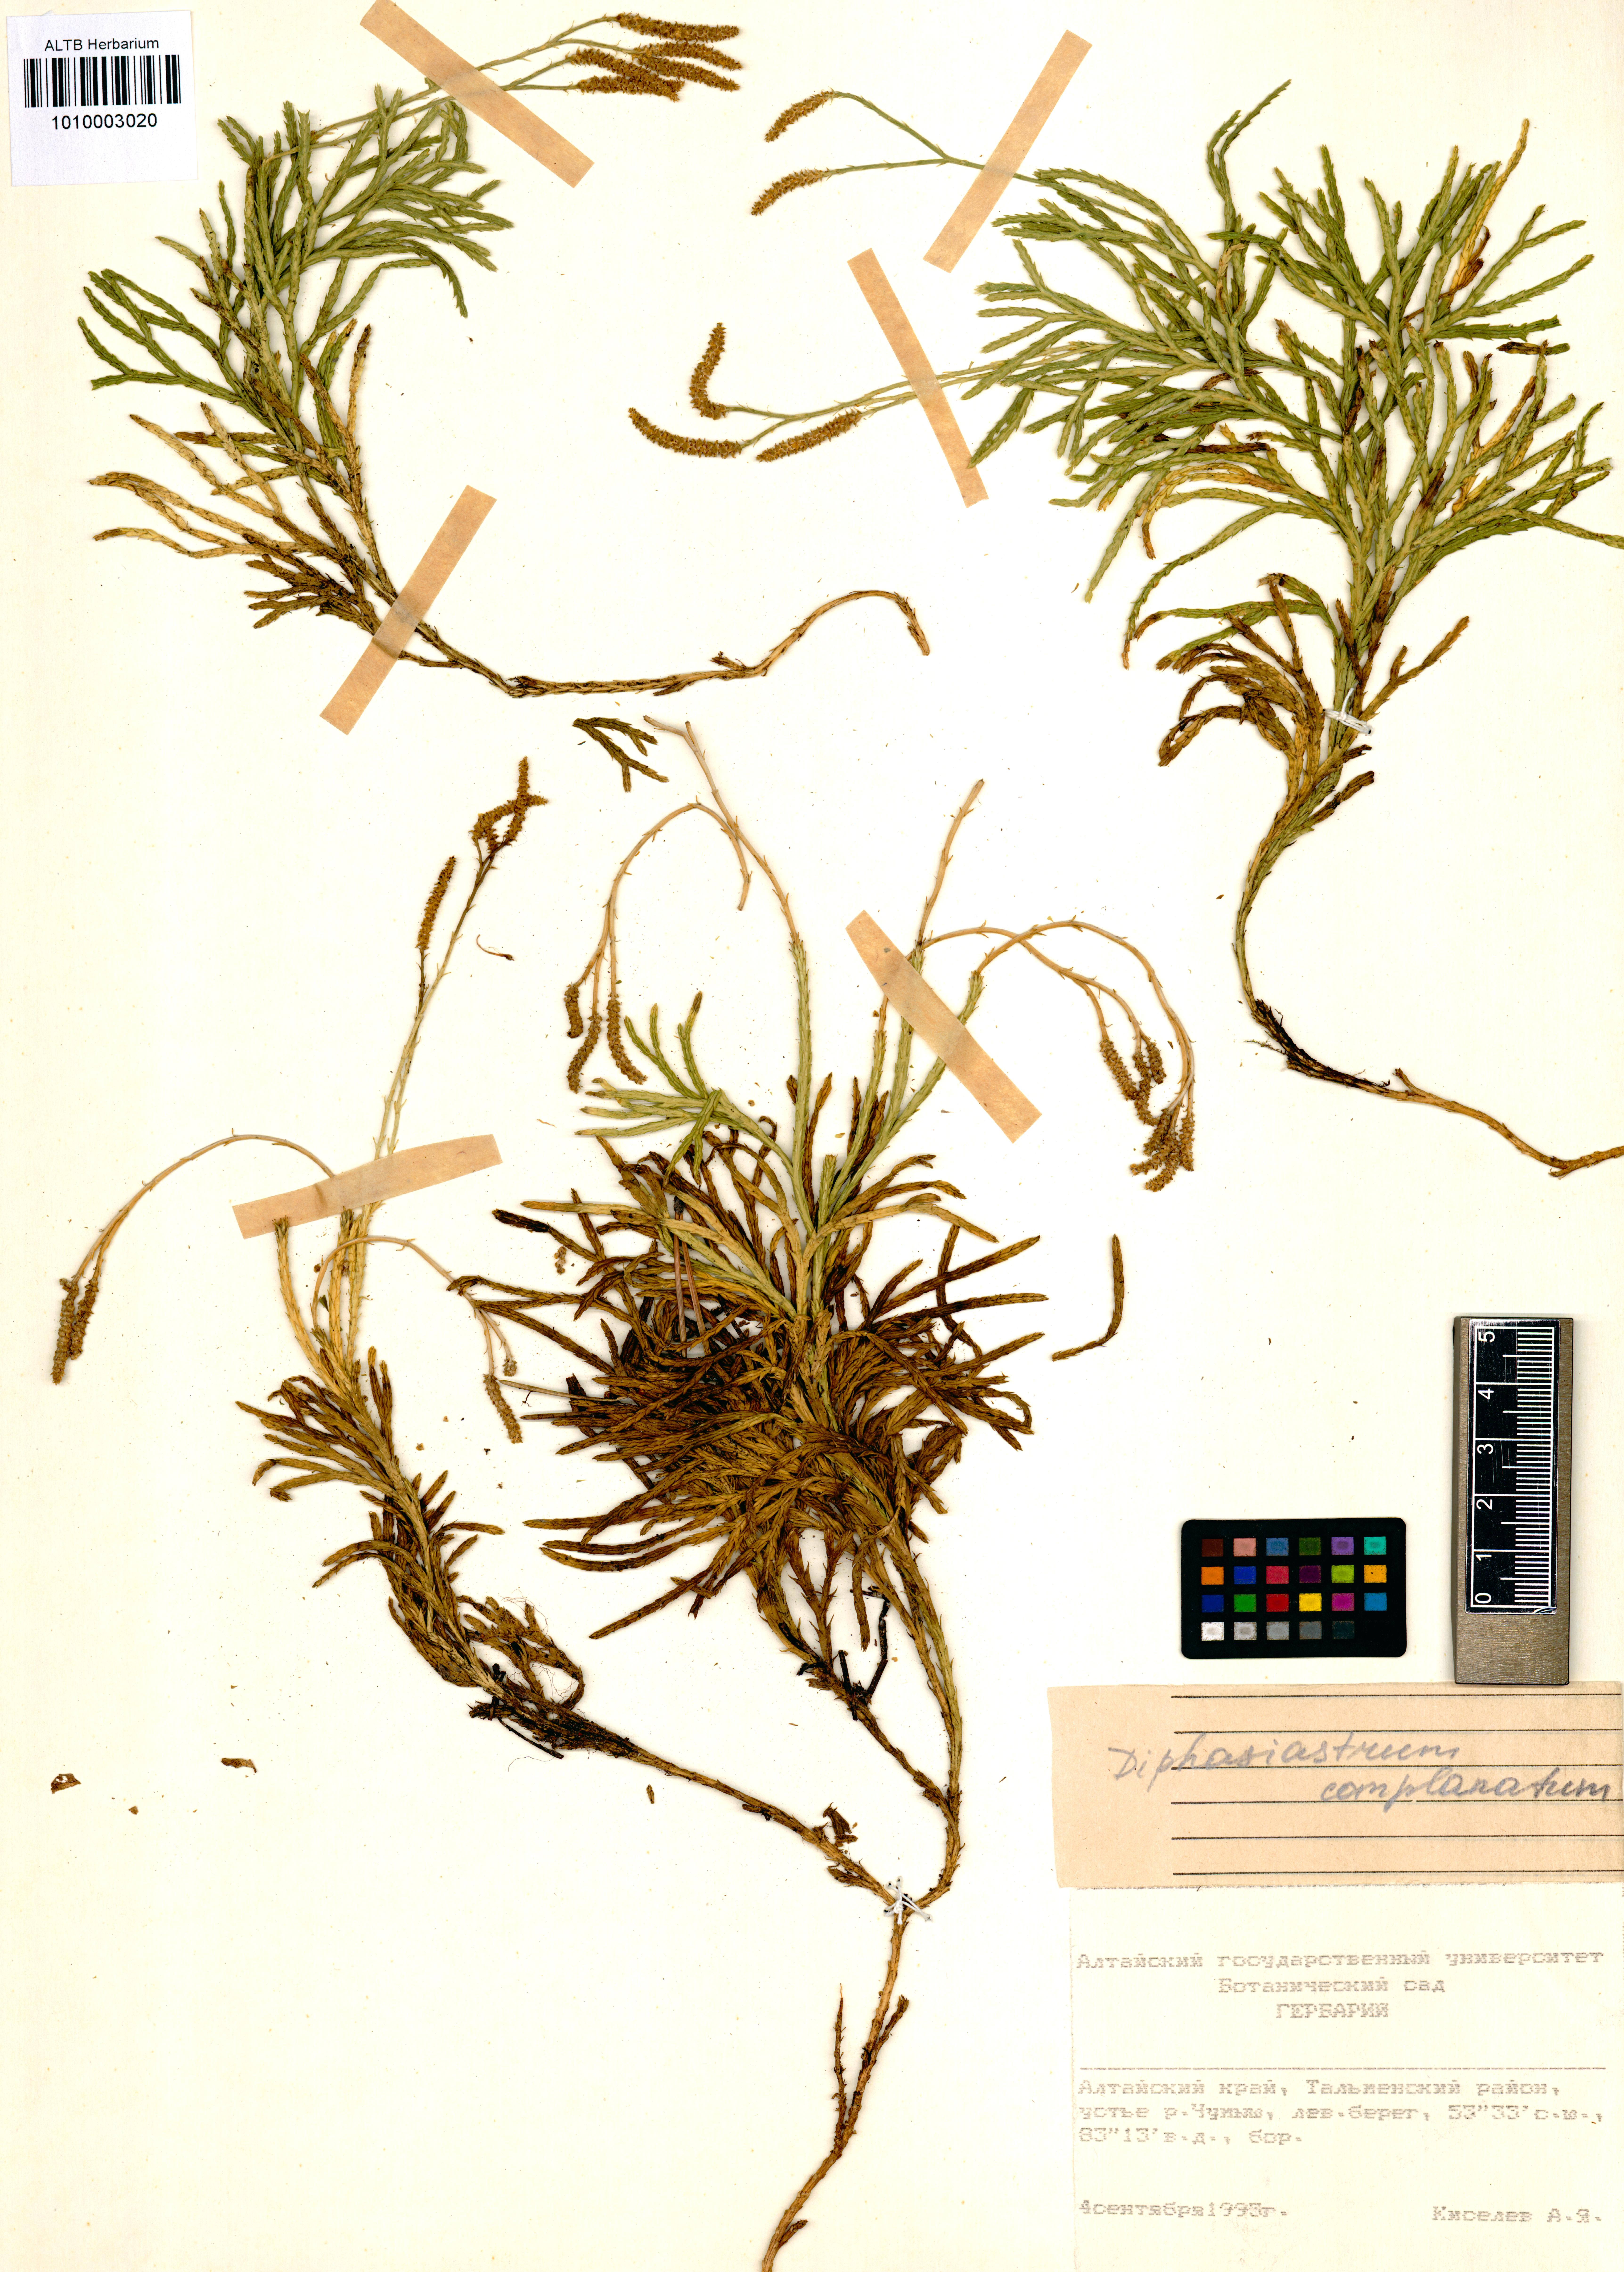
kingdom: Plantae
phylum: Tracheophyta
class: Lycopodiopsida
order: Lycopodiales
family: Lycopodiaceae
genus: Diphasiastrum
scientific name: Diphasiastrum complanatum
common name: Northern running-pine
